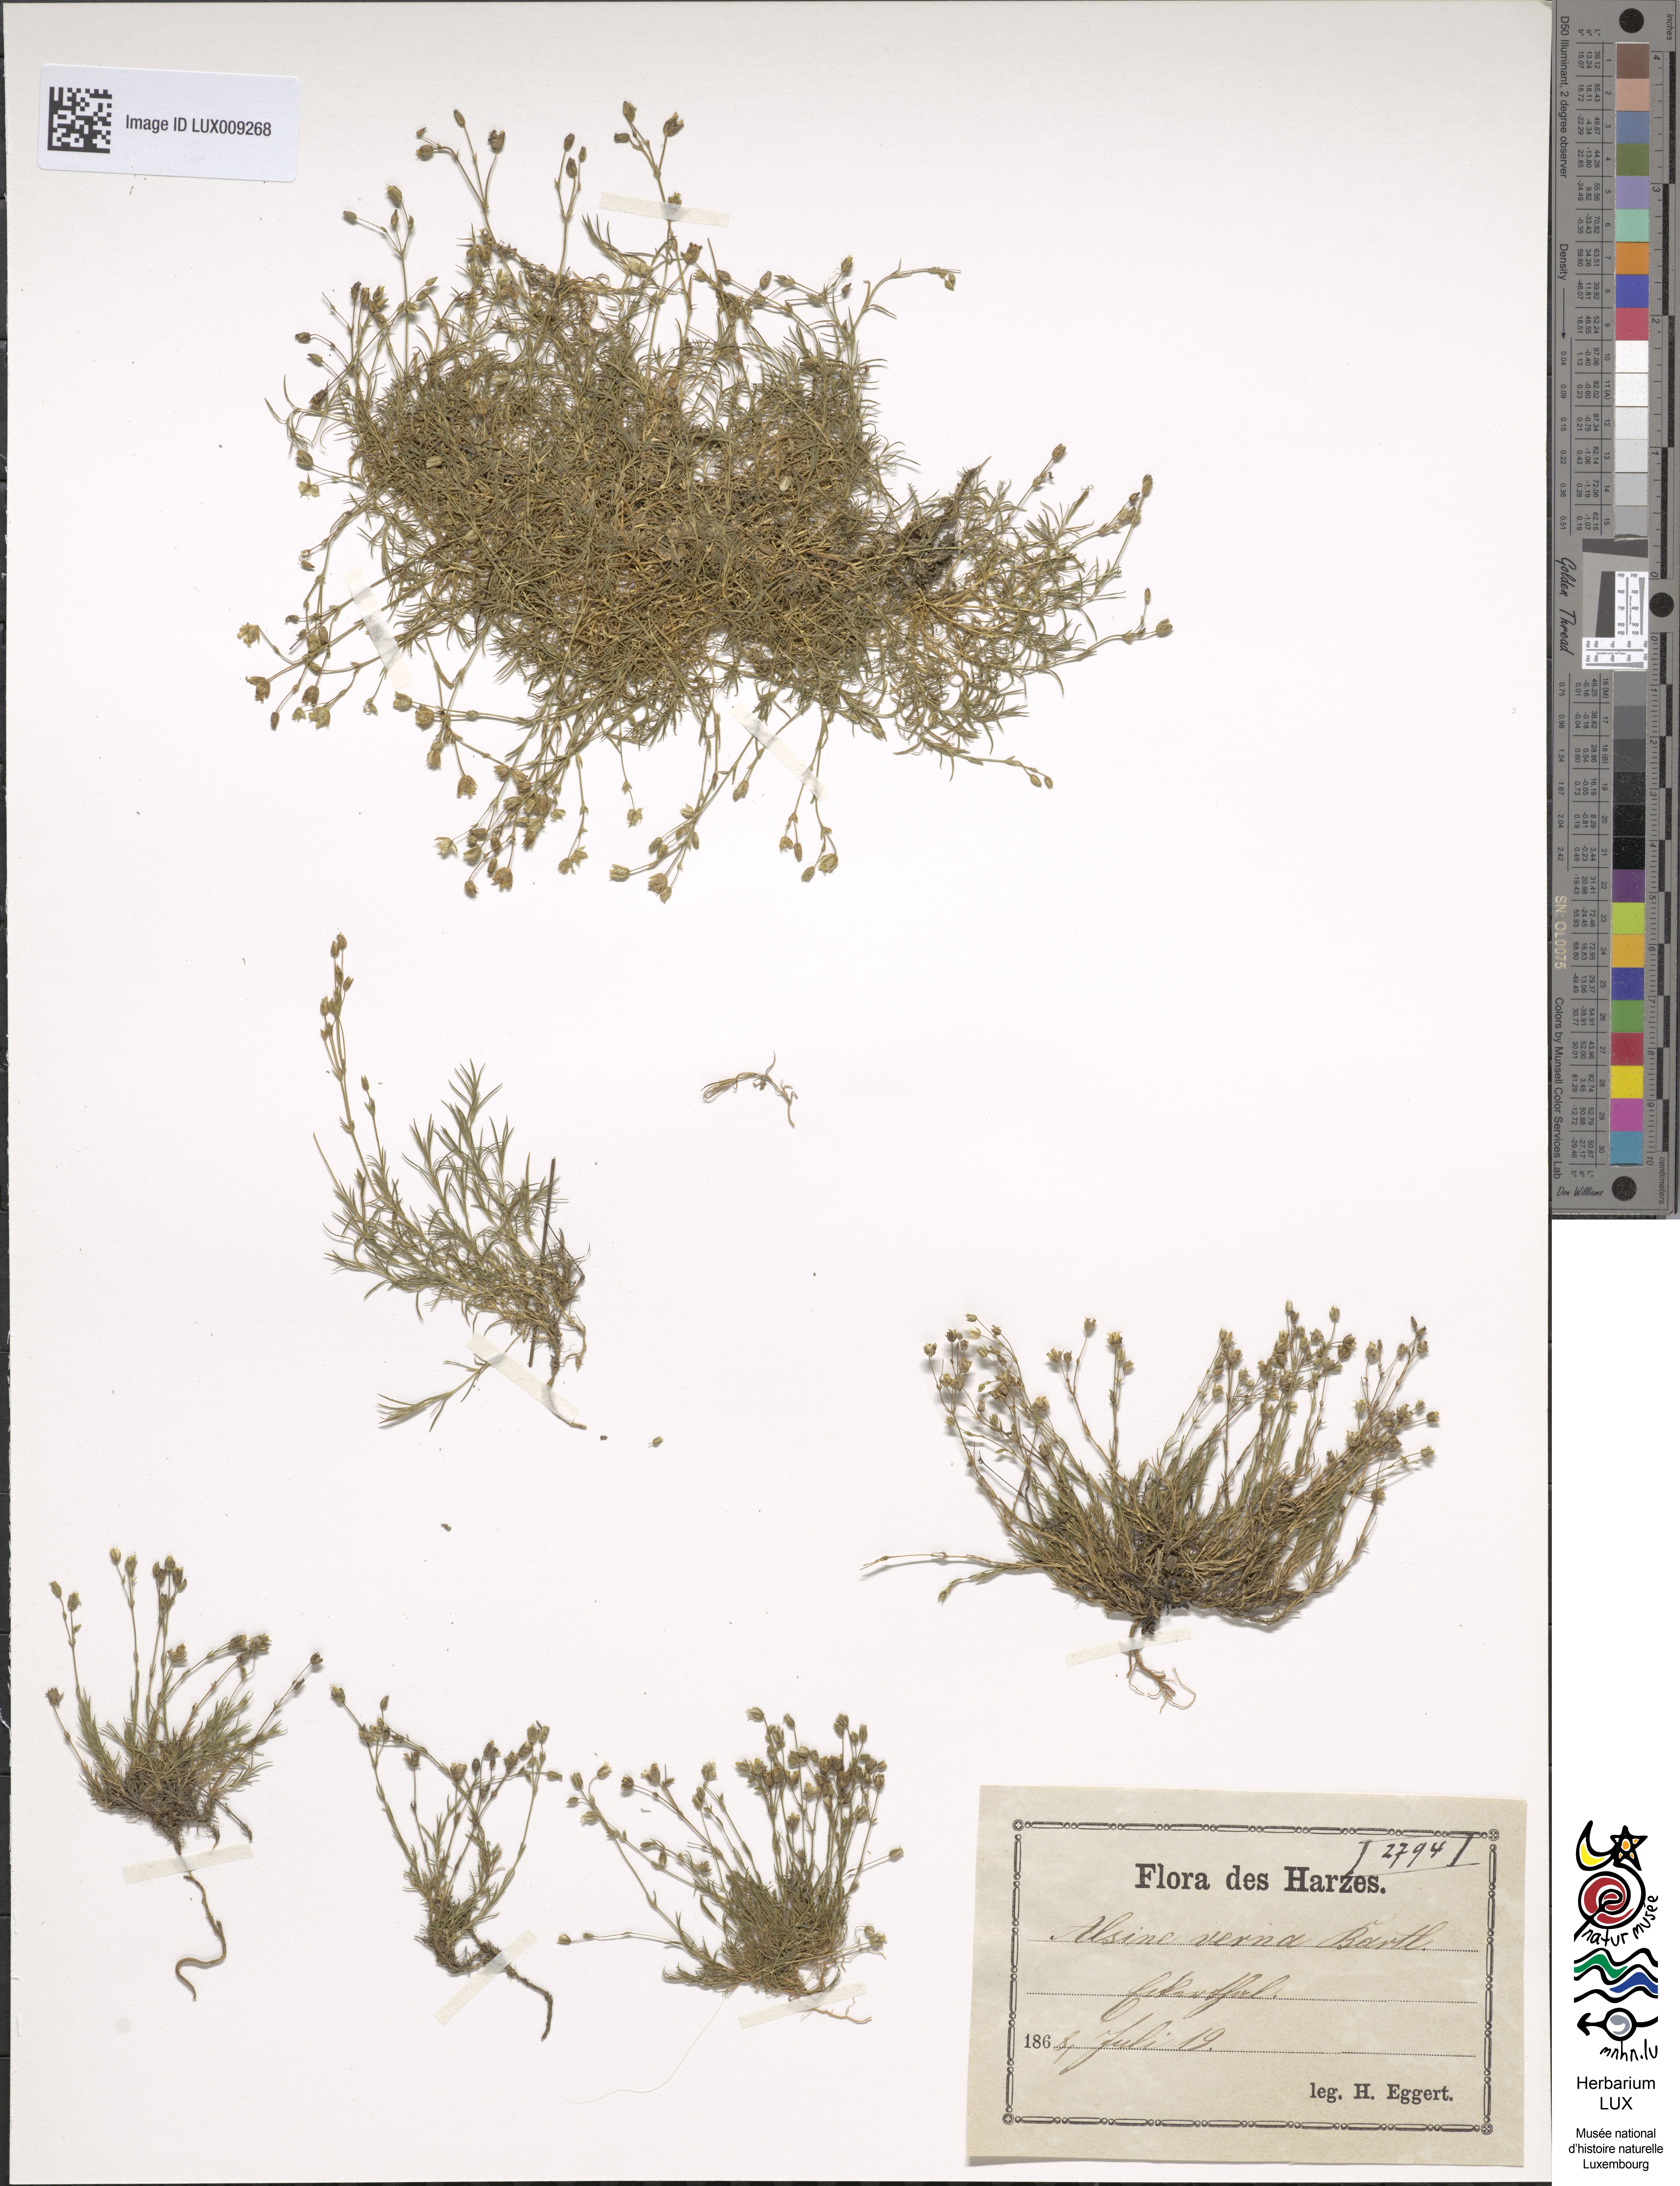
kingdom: Plantae
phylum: Tracheophyta
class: Magnoliopsida
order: Caryophyllales
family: Caryophyllaceae
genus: Sabulina
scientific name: Sabulina verna
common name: Spring sandwort
